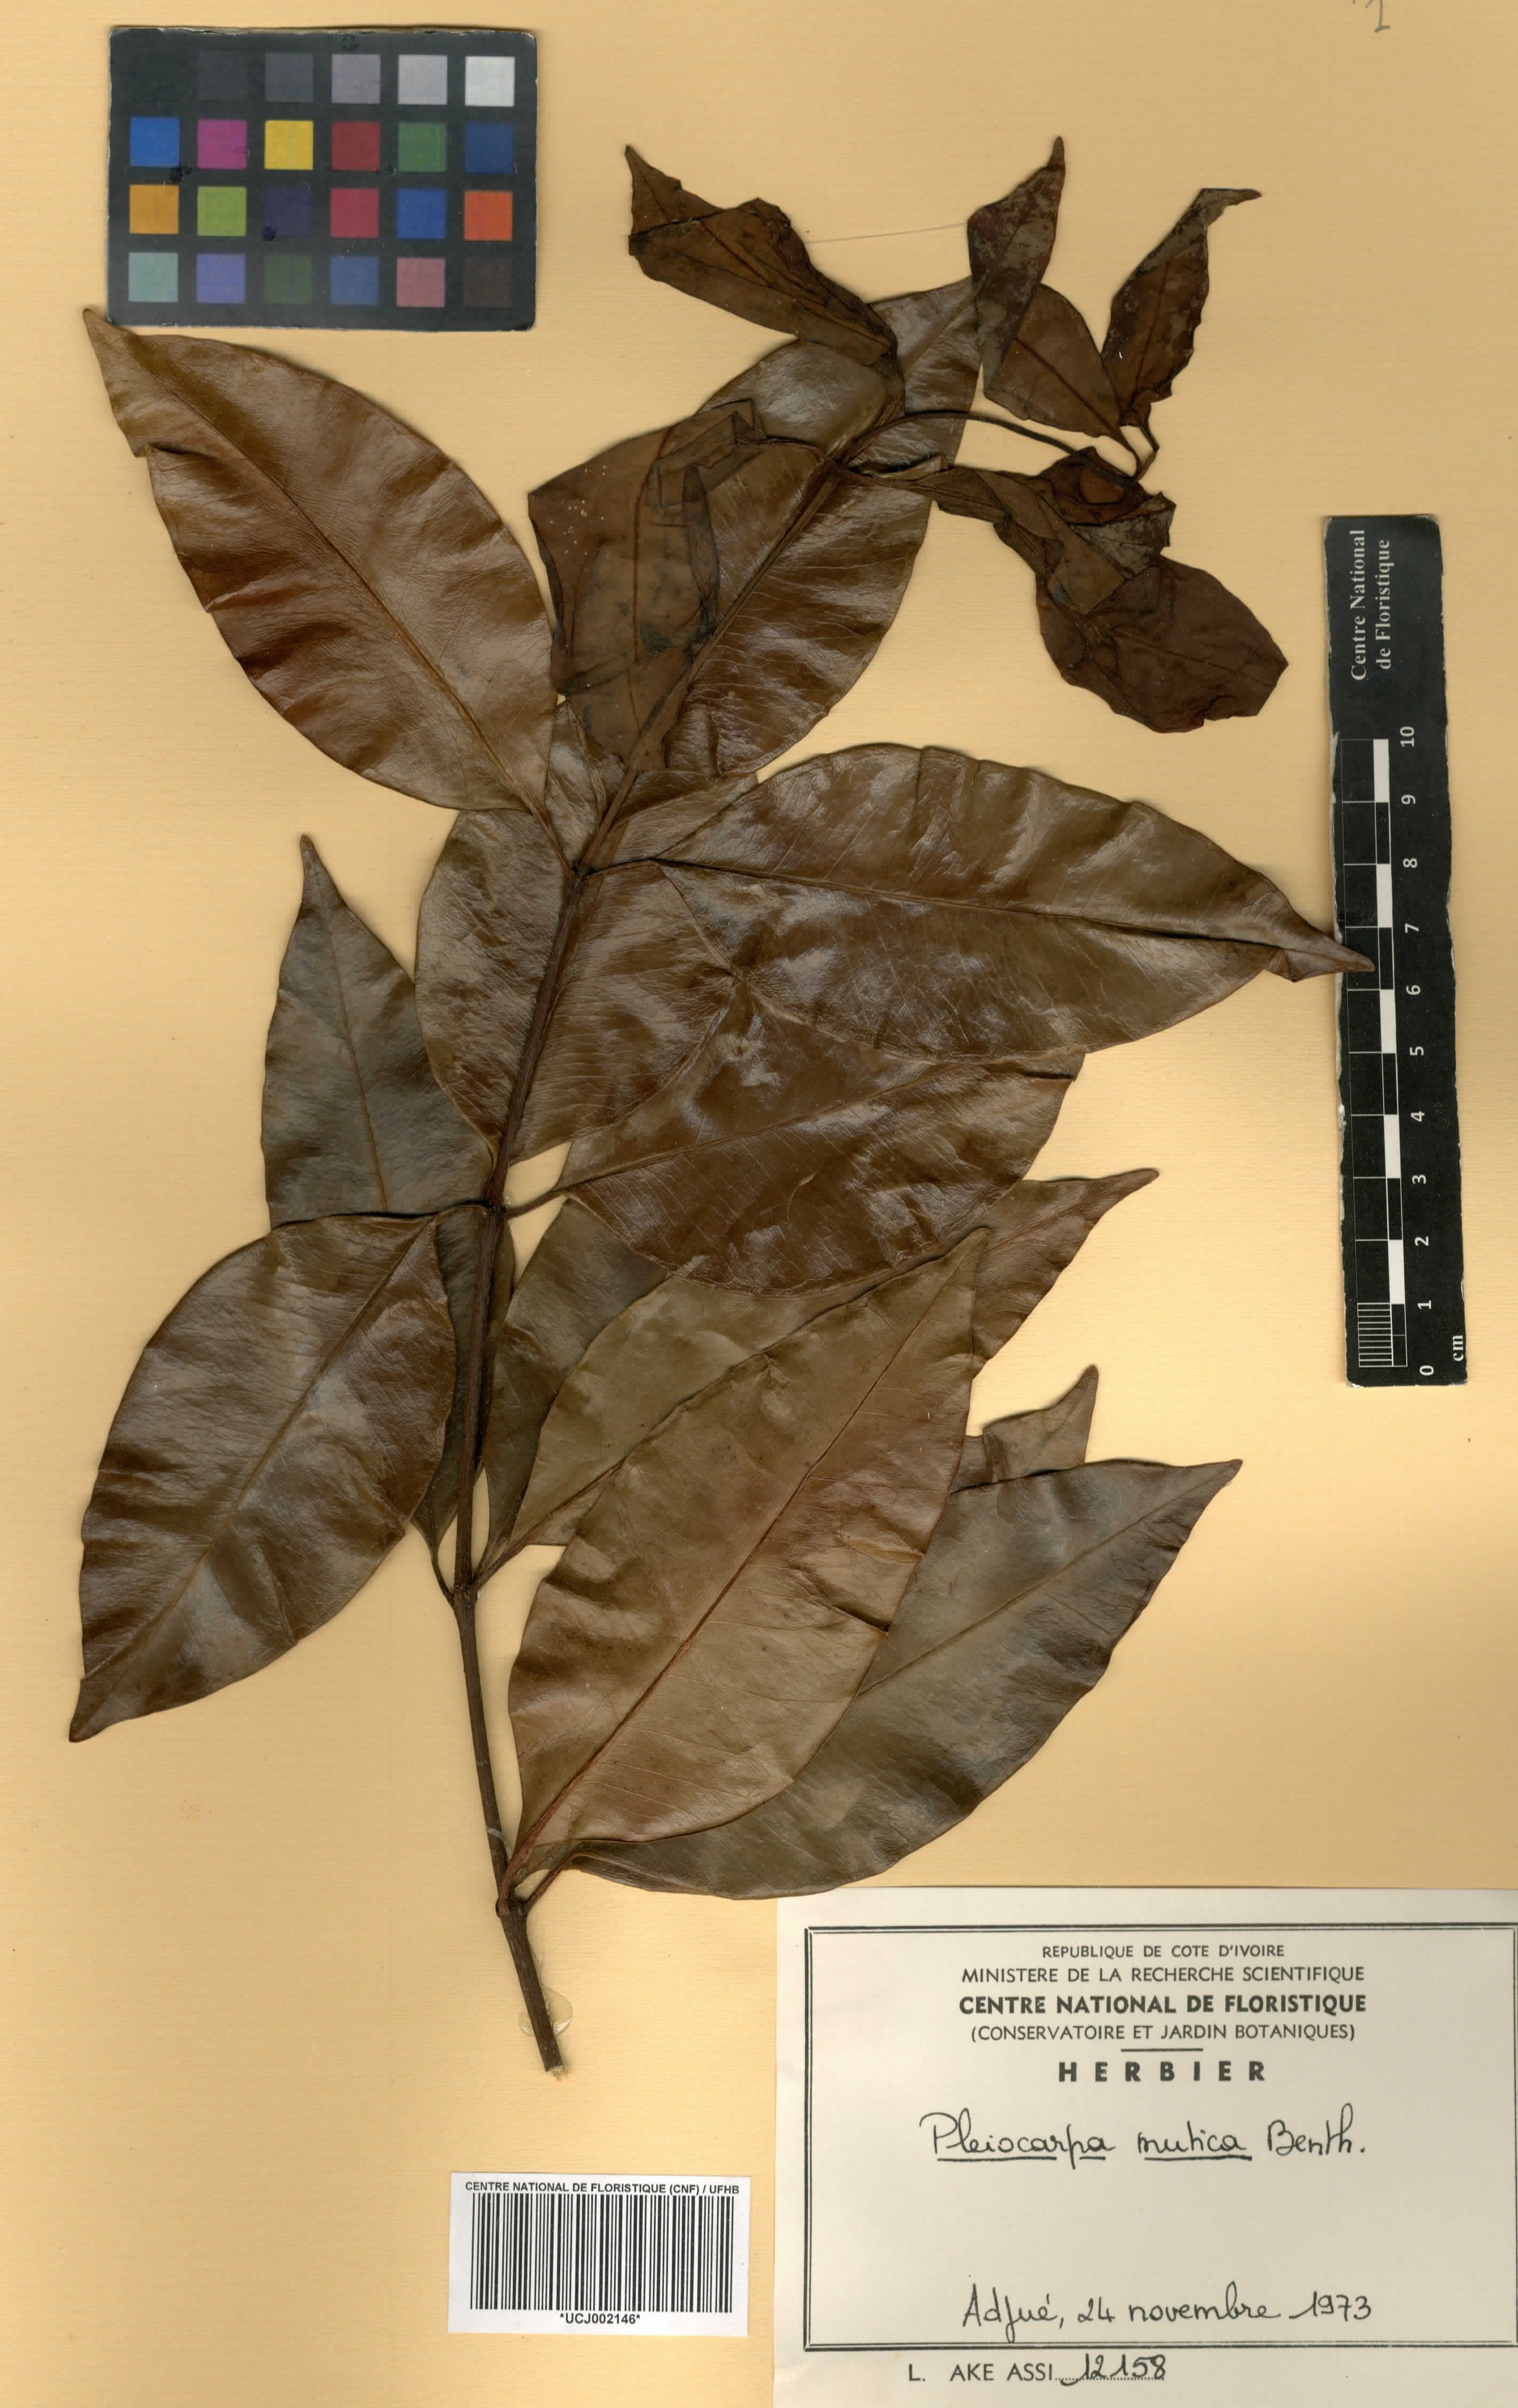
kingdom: Plantae
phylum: Tracheophyta
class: Magnoliopsida
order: Gentianales
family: Apocynaceae
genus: Pleiocarpa
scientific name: Pleiocarpa mutica
